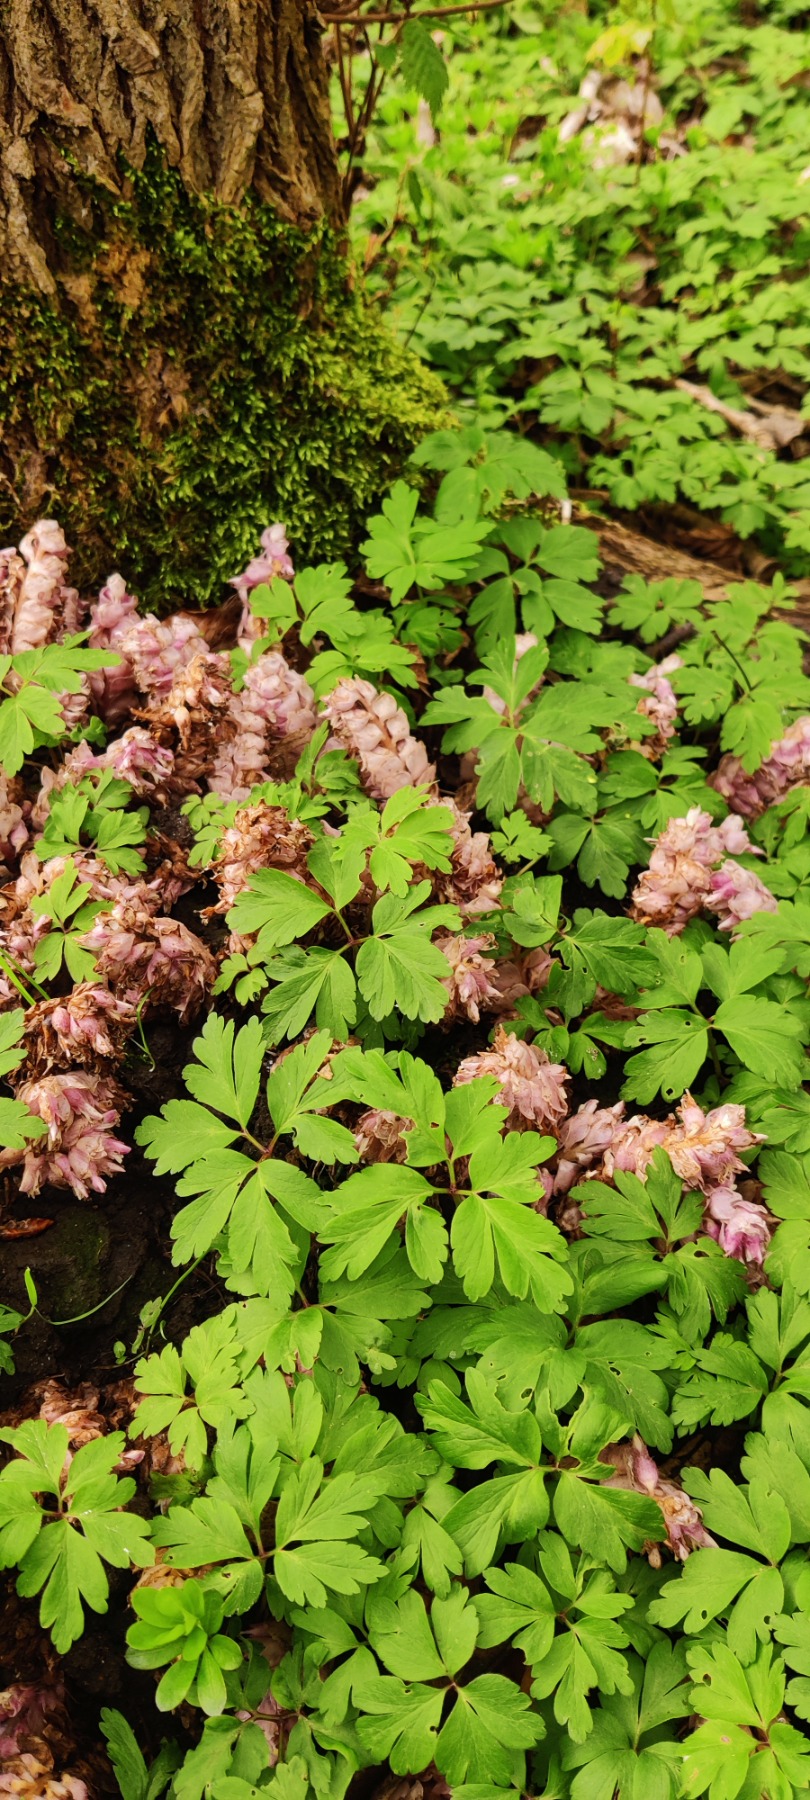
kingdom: Plantae
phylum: Tracheophyta
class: Magnoliopsida
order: Lamiales
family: Orobanchaceae
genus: Lathraea
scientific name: Lathraea squamaria
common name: Skælrod
